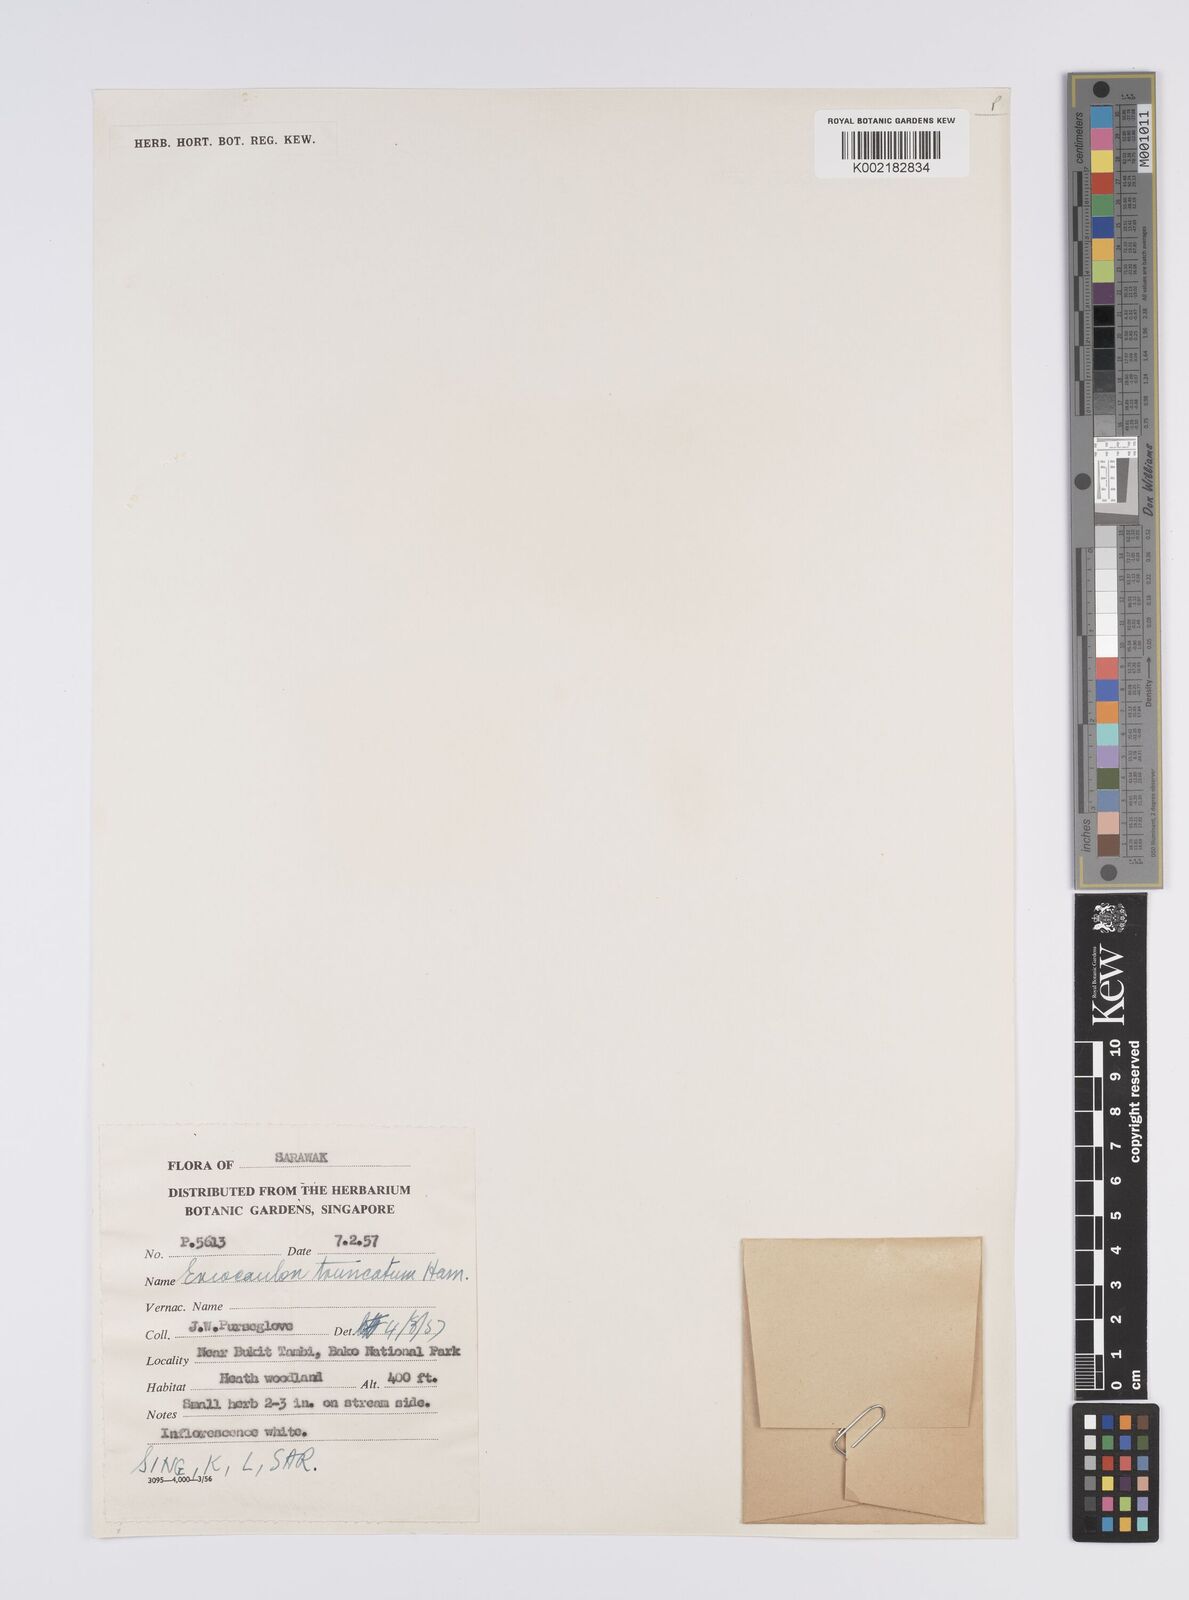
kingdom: Plantae
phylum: Tracheophyta
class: Liliopsida
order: Poales
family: Eriocaulaceae
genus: Eriocaulon
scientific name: Eriocaulon truncatum
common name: Short pipe-wort
